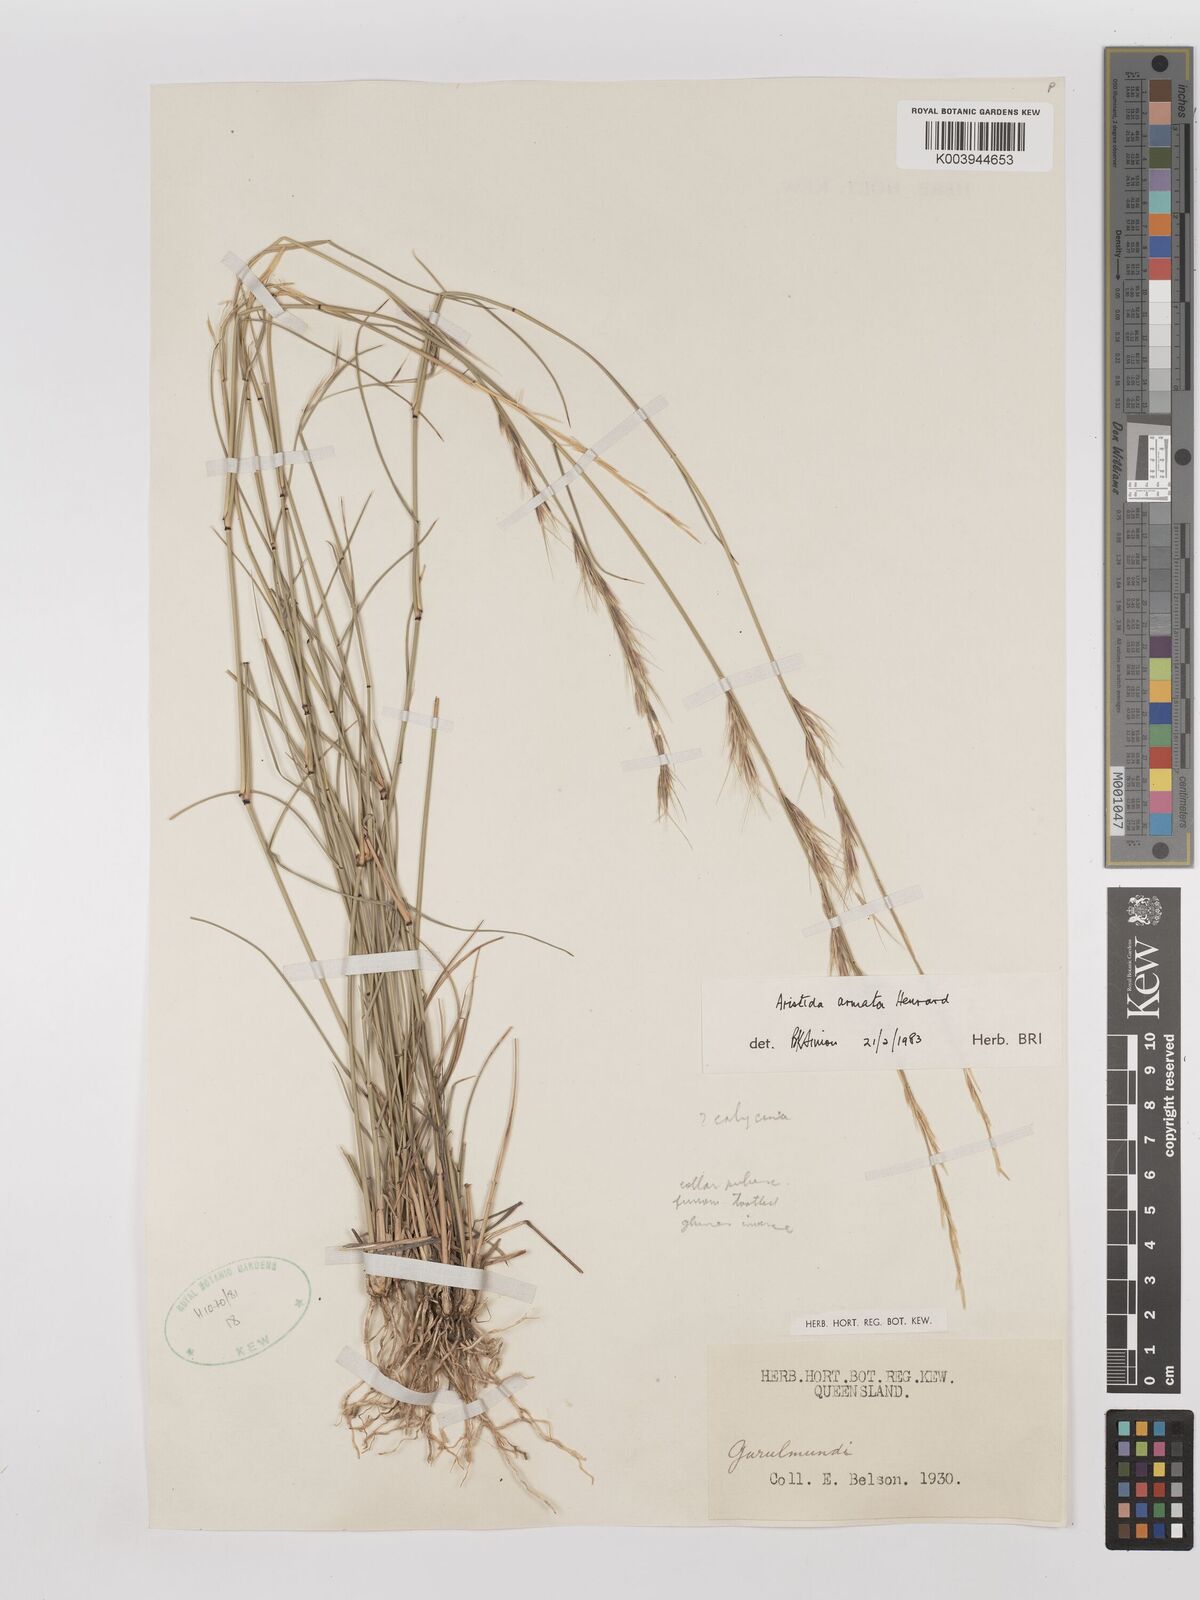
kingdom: Plantae
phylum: Tracheophyta
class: Liliopsida
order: Poales
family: Poaceae
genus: Aristida
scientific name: Aristida calycina
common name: Dark wire grass
